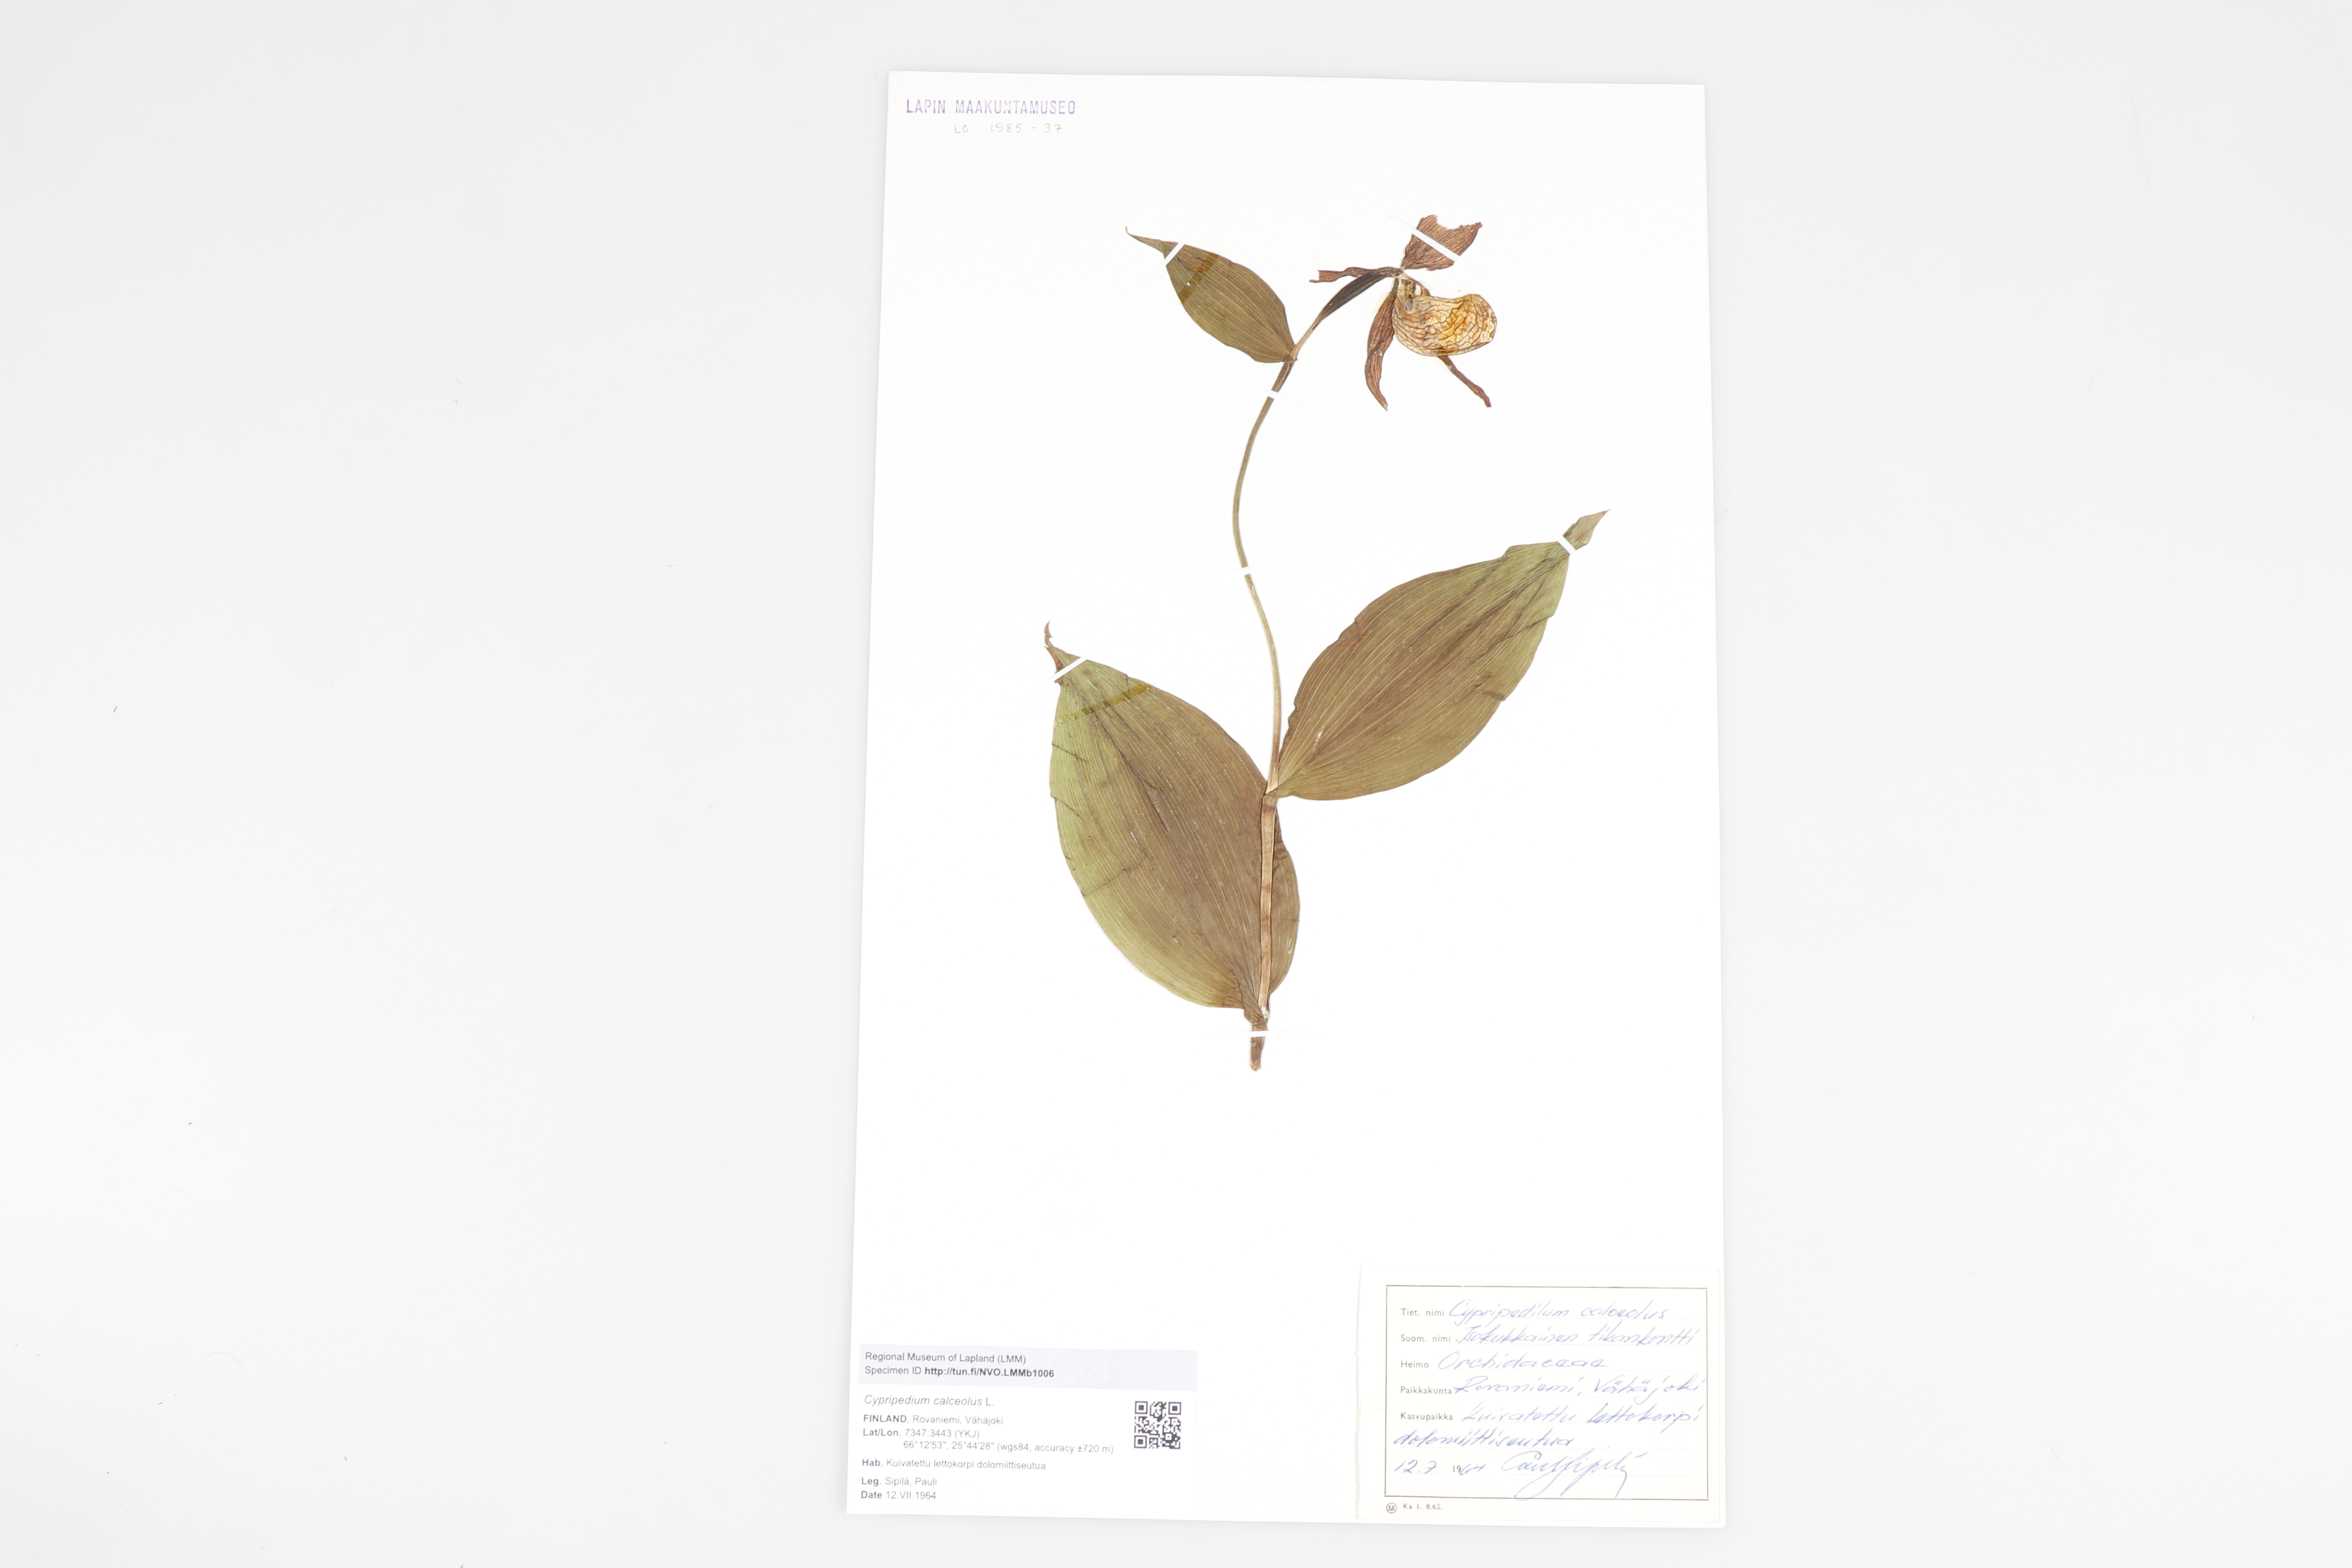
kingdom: Plantae
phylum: Tracheophyta
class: Liliopsida
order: Asparagales
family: Orchidaceae
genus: Cypripedium
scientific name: Cypripedium calceolus
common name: Lady's-slipper
